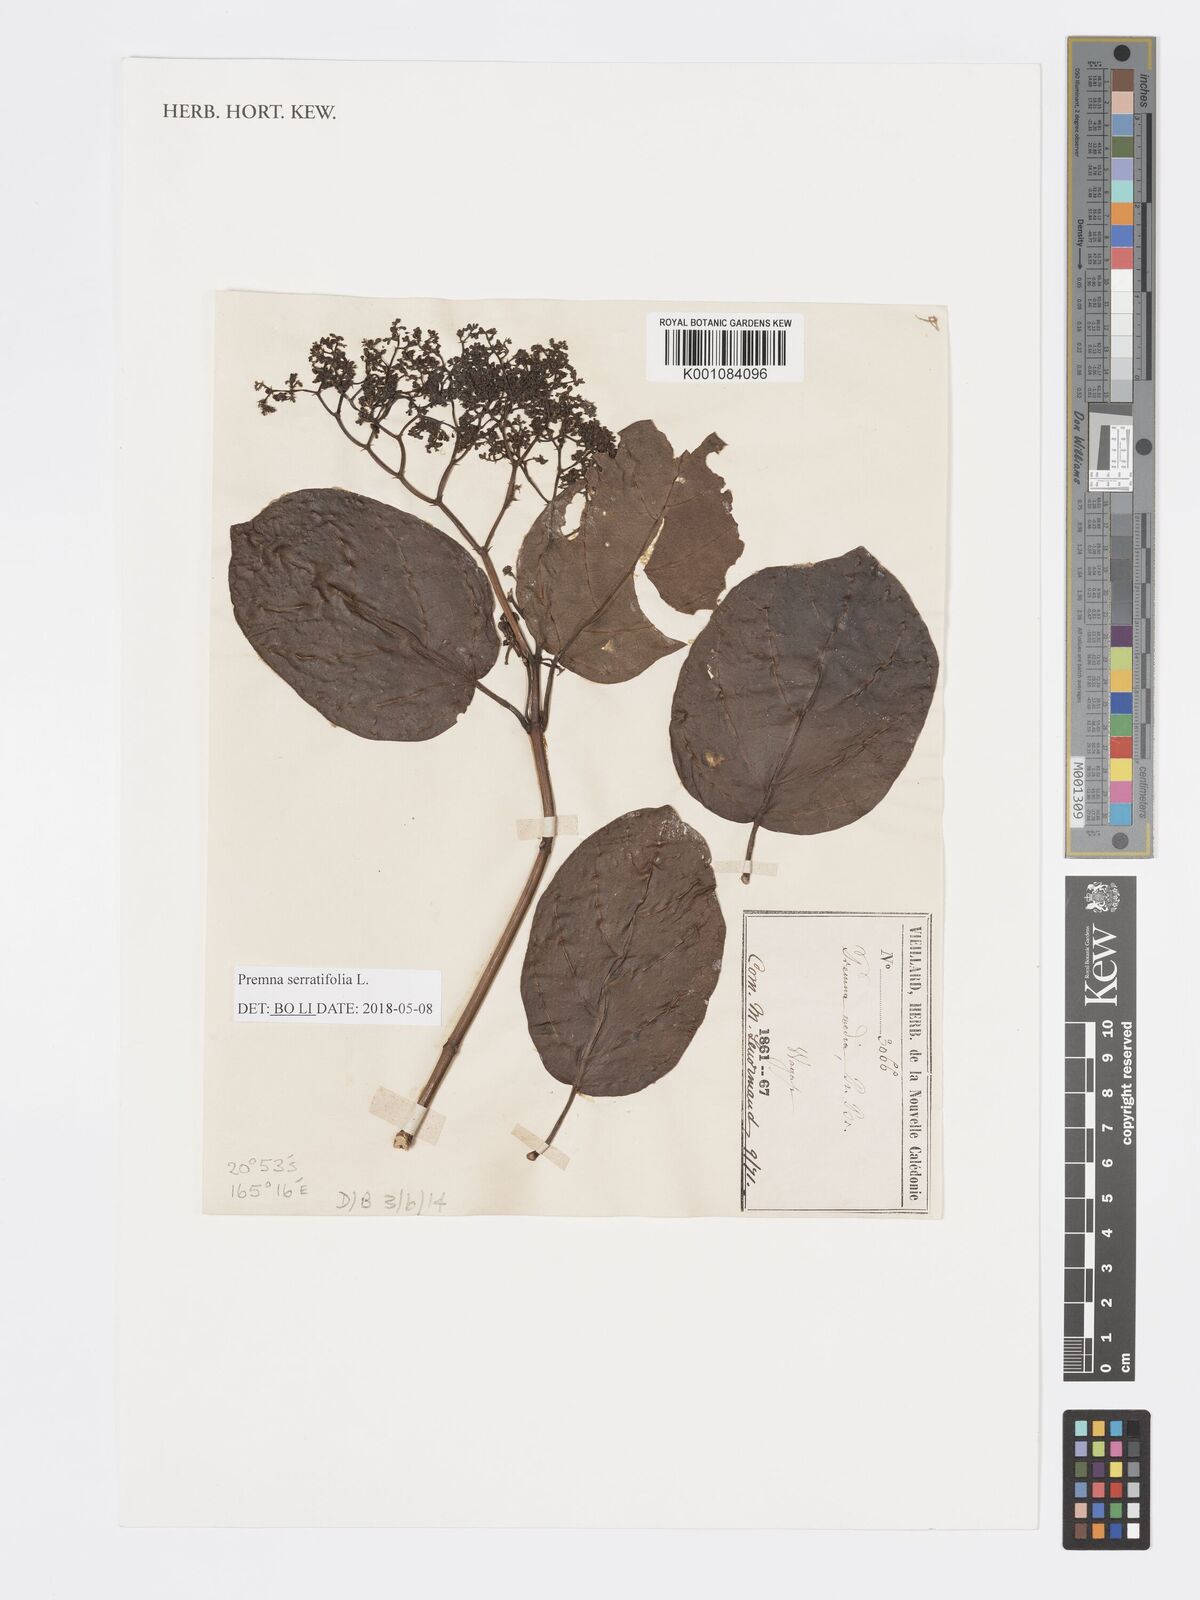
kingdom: Plantae
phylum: Tracheophyta
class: Magnoliopsida
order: Lamiales
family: Lamiaceae
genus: Premna
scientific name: Premna serratifolia
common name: Bastard guelder
